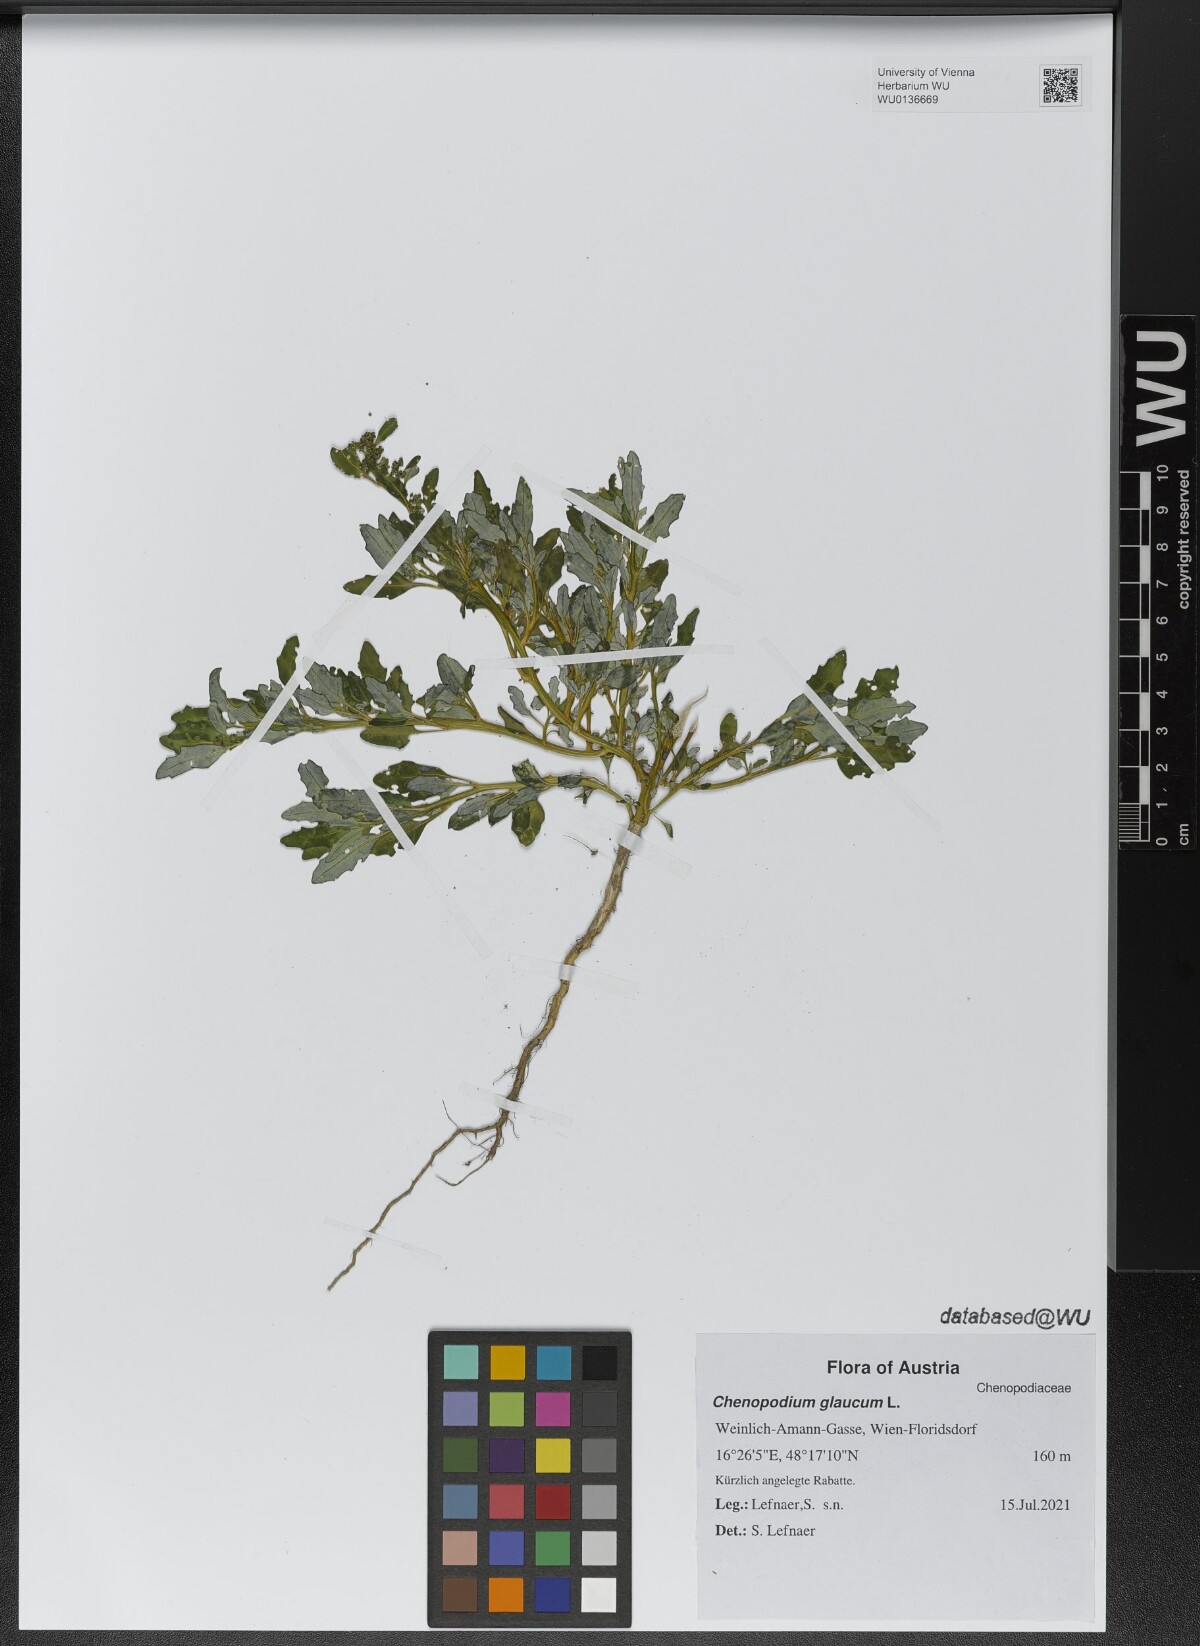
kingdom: Plantae
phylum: Tracheophyta
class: Magnoliopsida
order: Caryophyllales
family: Amaranthaceae
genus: Oxybasis
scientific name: Oxybasis glauca
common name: Glaucous goosefoot
